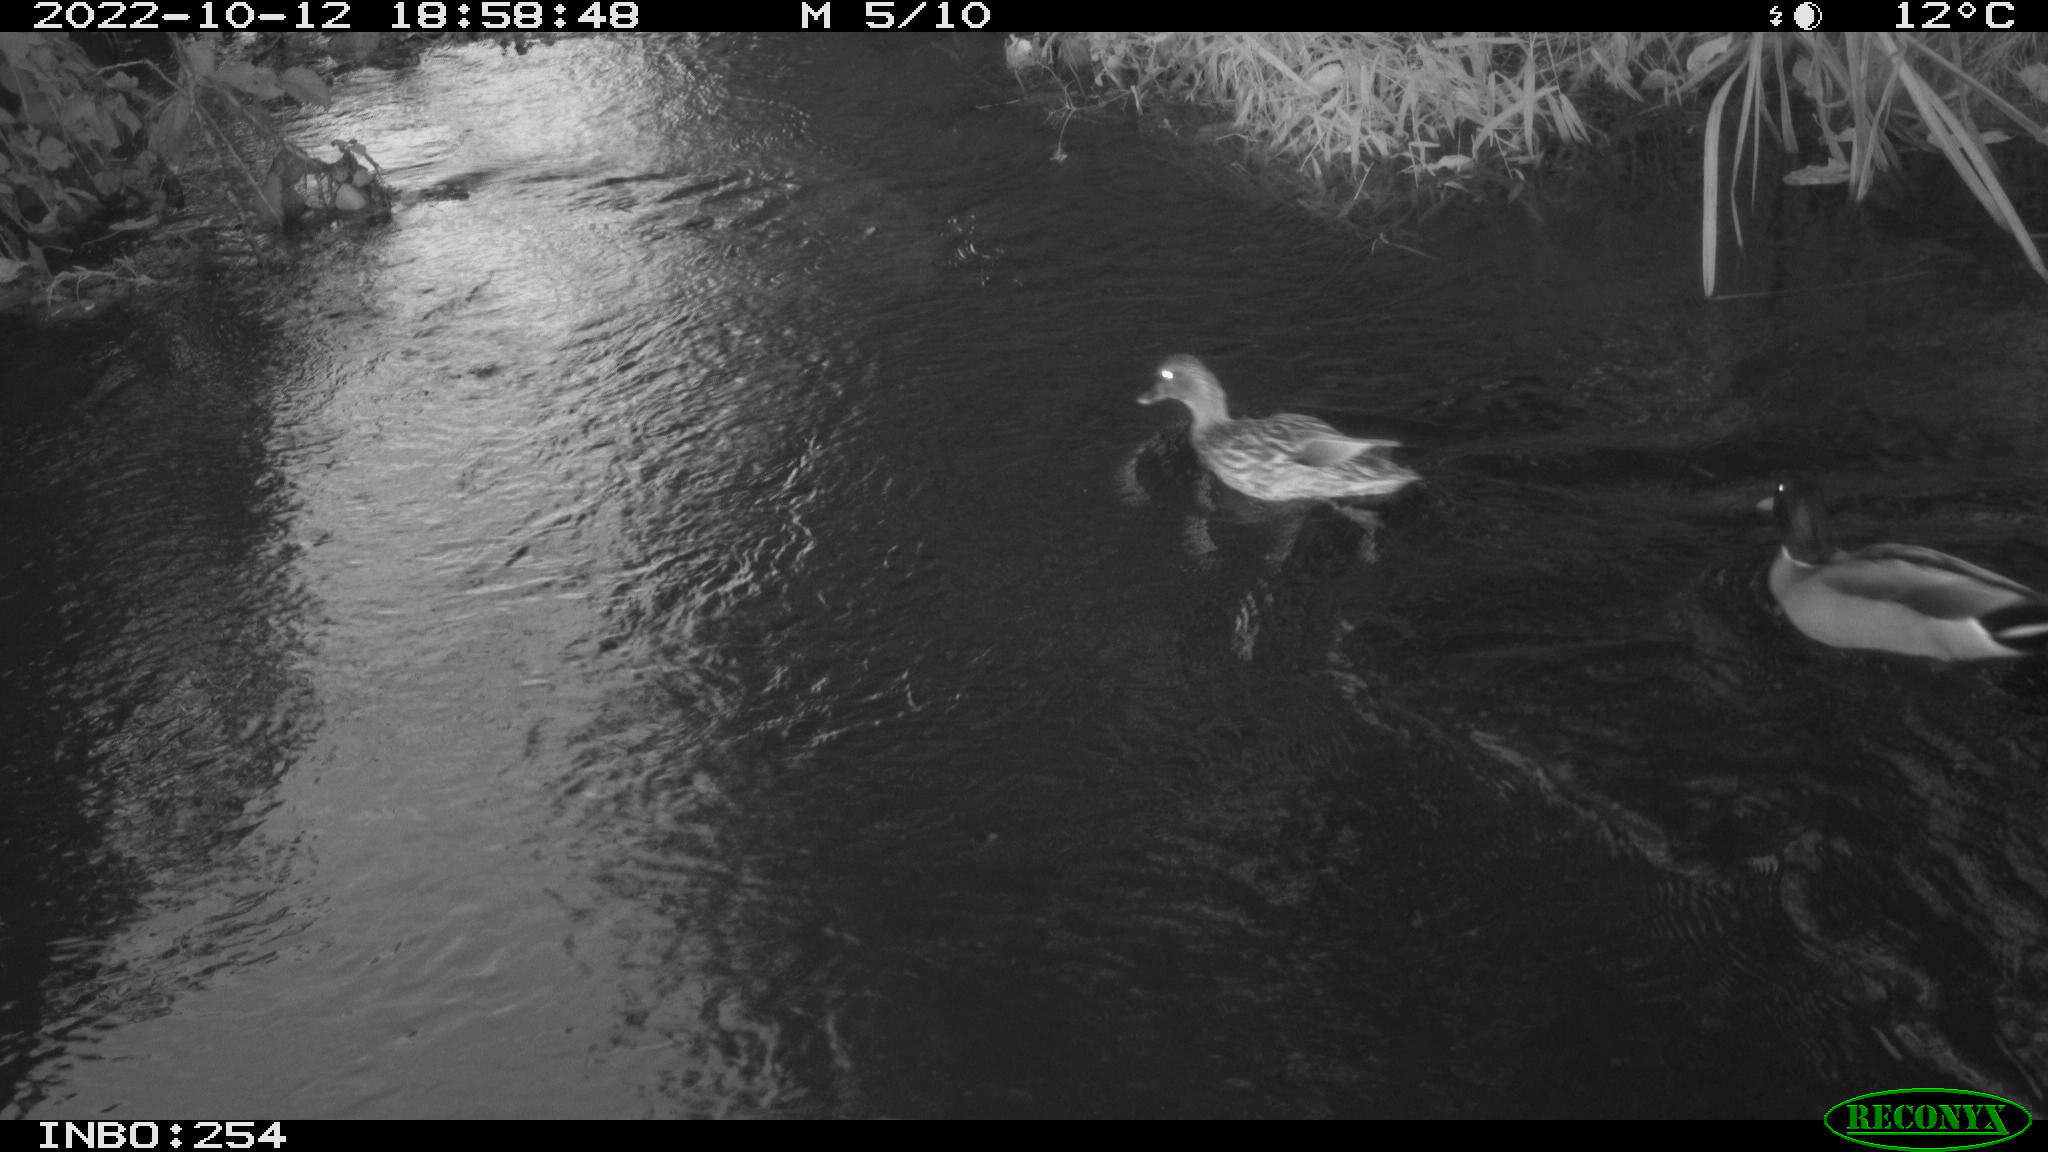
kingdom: Animalia
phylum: Chordata
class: Aves
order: Anseriformes
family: Anatidae
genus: Anas
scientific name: Anas
